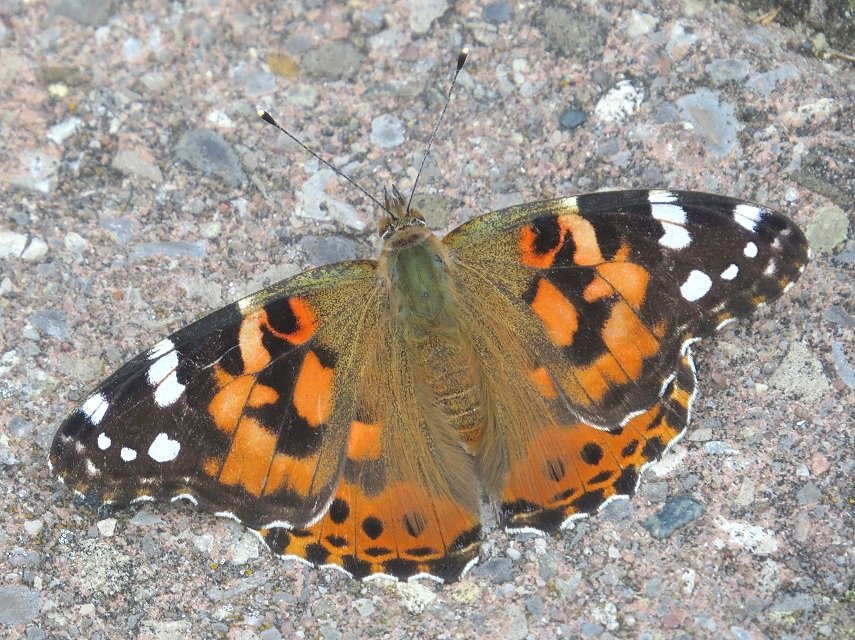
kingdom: Animalia
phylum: Arthropoda
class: Insecta
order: Lepidoptera
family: Nymphalidae
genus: Vanessa
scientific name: Vanessa cardui
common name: Painted Lady
